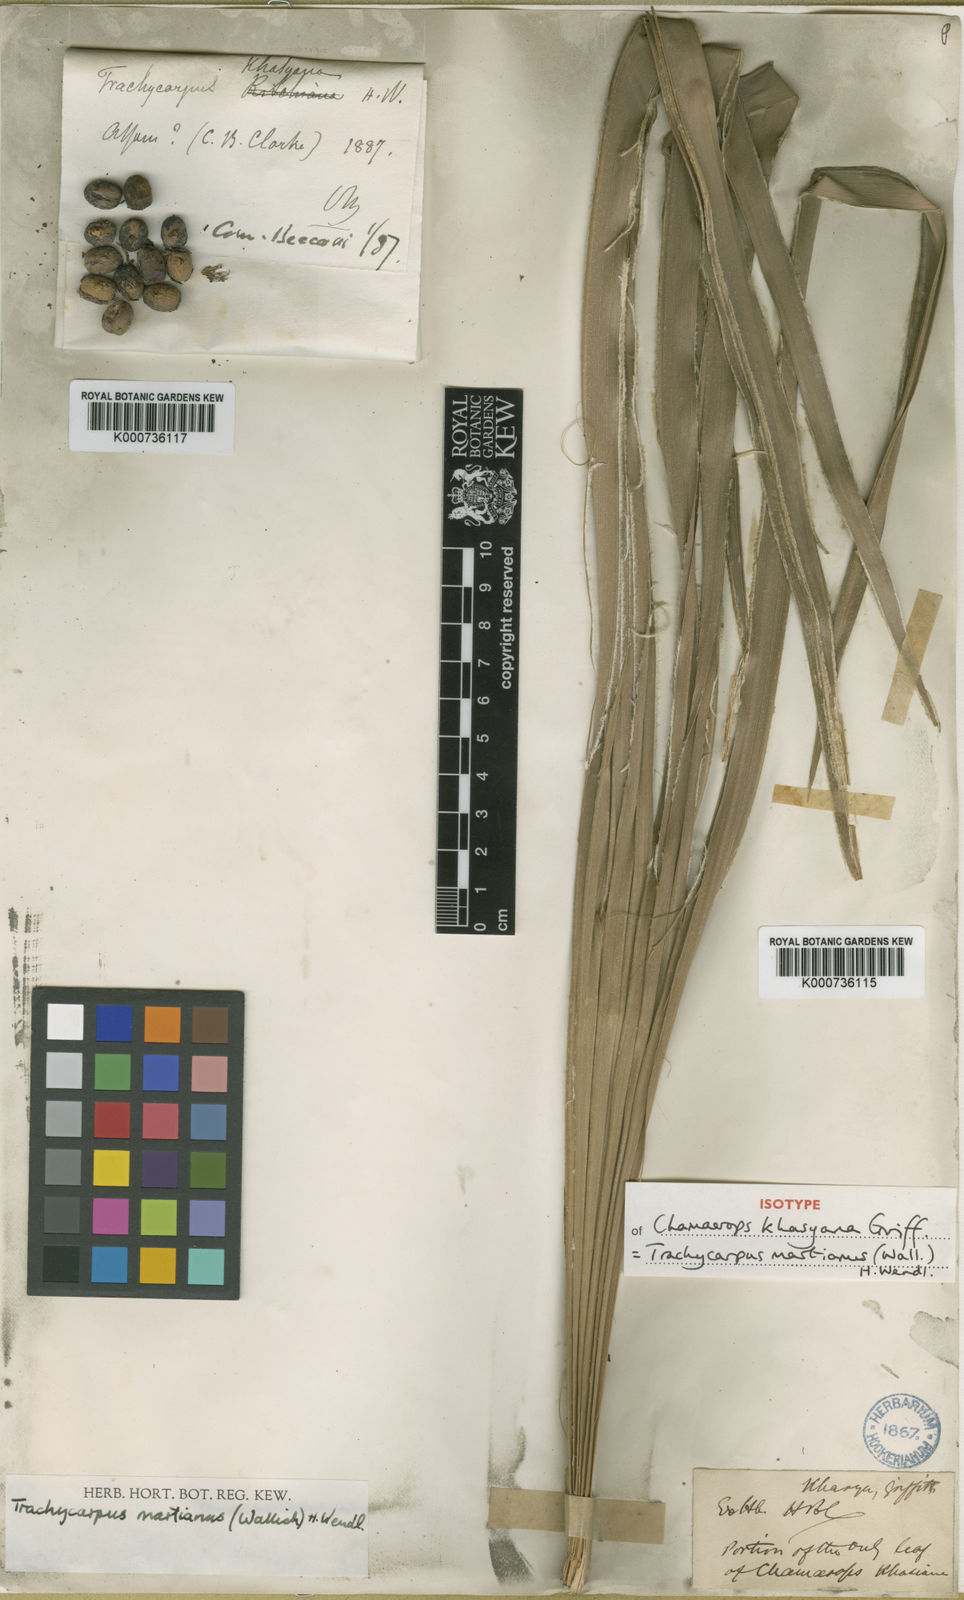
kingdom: Plantae
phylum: Tracheophyta
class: Liliopsida
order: Arecales
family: Arecaceae
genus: Trachycarpus
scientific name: Trachycarpus martianus
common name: Martius's windmill palm
